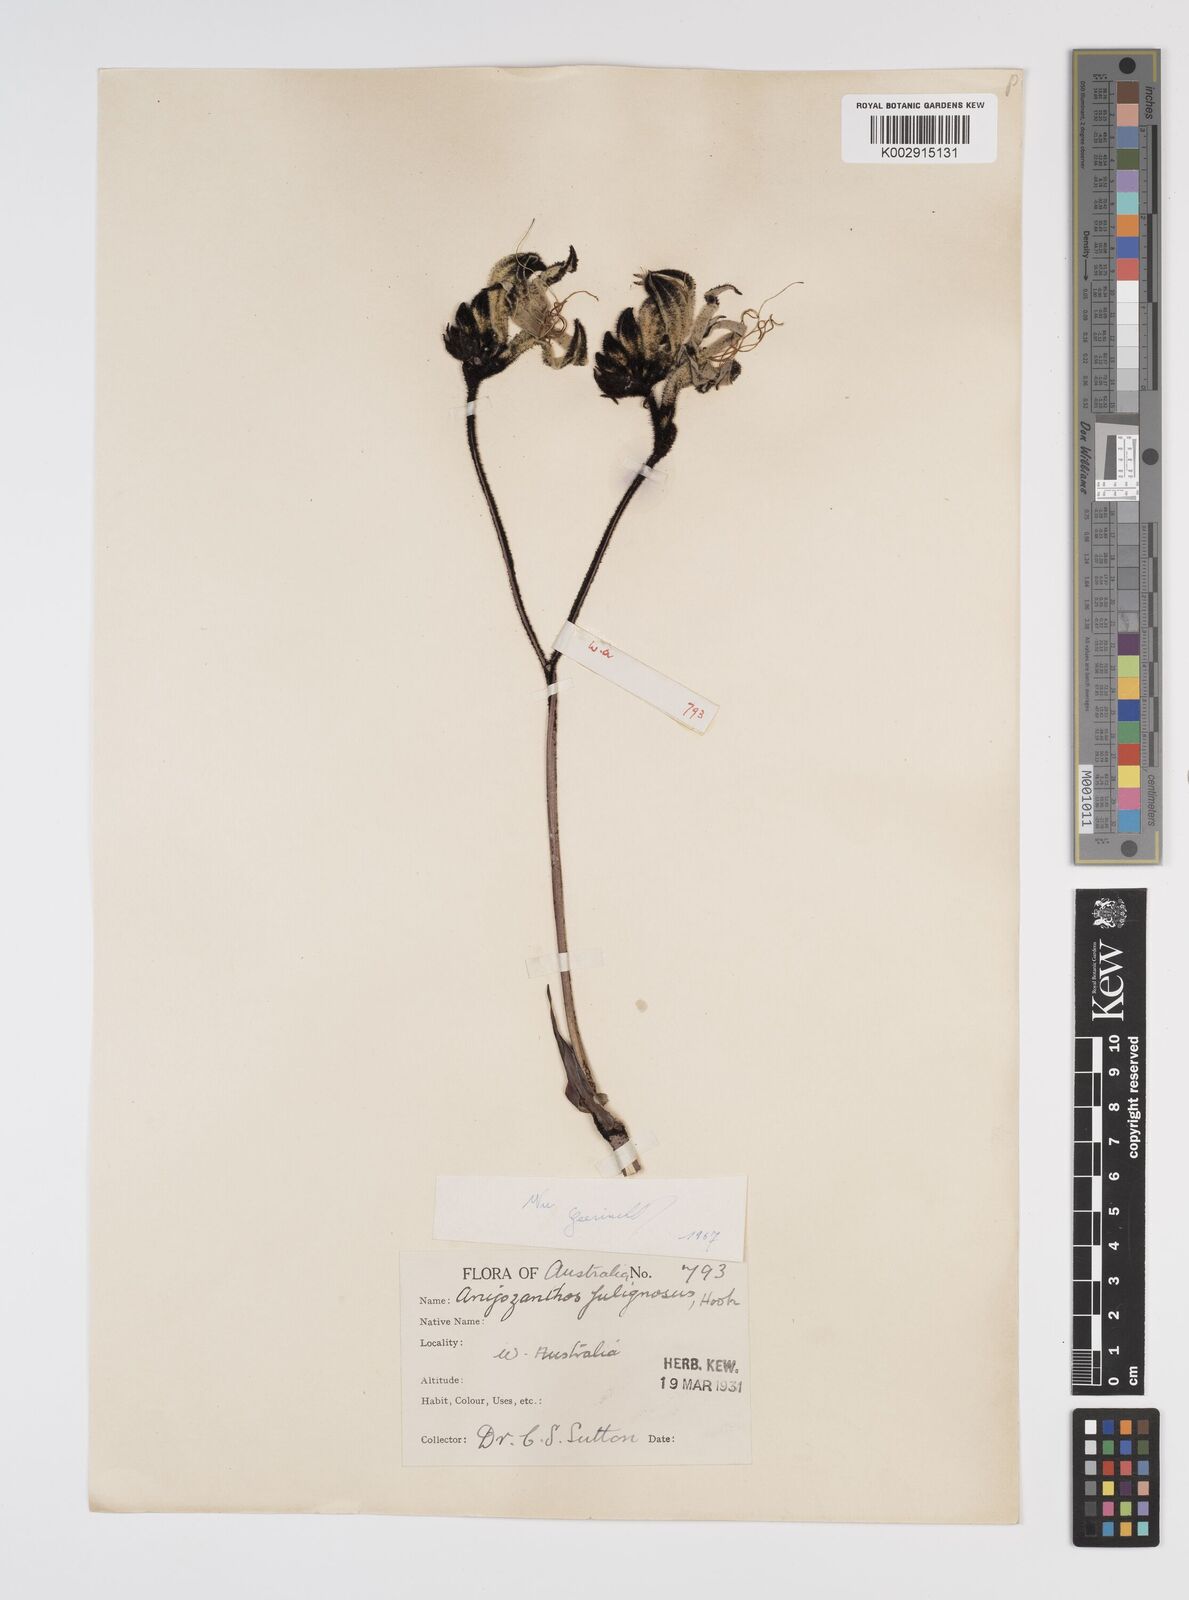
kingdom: Plantae
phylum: Tracheophyta
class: Liliopsida
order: Commelinales
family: Haemodoraceae
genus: Macropidia
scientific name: Macropidia fuliginosa
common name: Black kangaroo-paw
